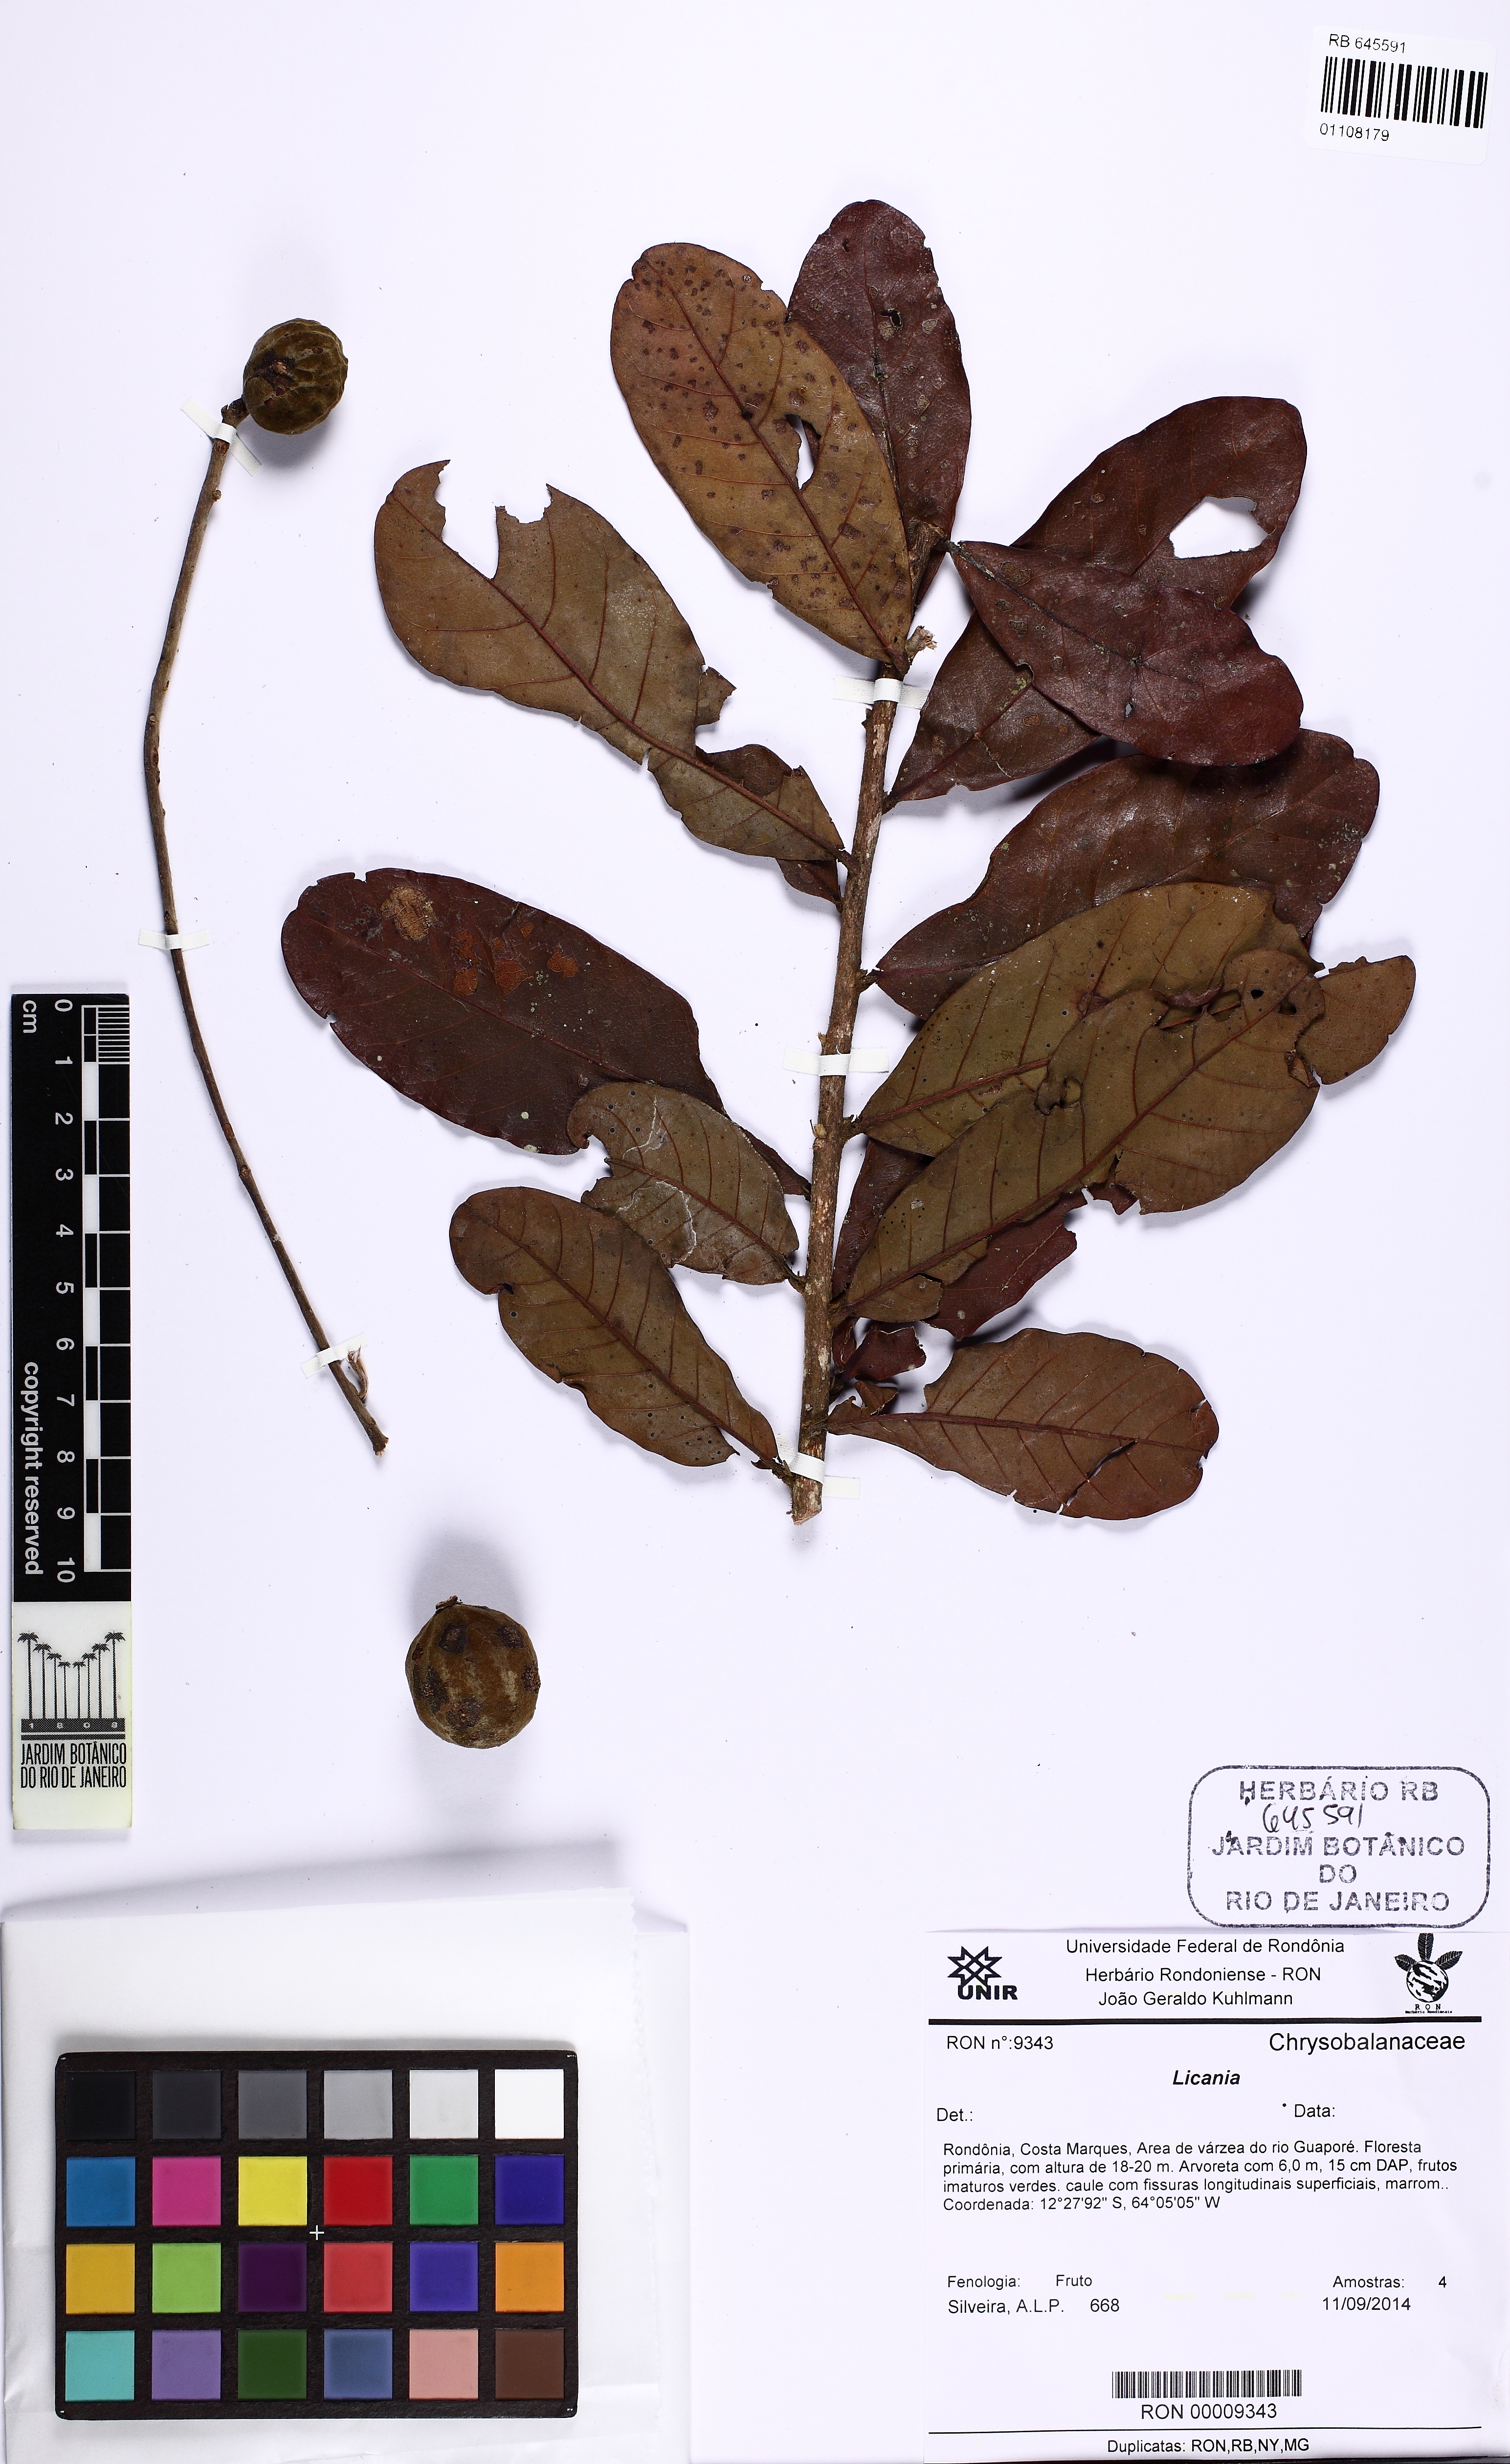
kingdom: Plantae
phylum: Tracheophyta
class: Magnoliopsida
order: Malpighiales
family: Chrysobalanaceae
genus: Licania
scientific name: Licania
